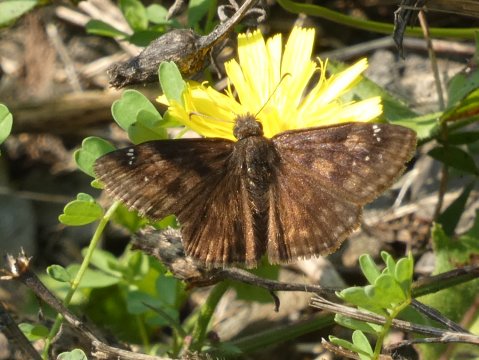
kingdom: Animalia
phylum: Arthropoda
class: Insecta
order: Lepidoptera
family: Hesperiidae
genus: Gesta
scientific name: Gesta
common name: Horace's Duskywing
